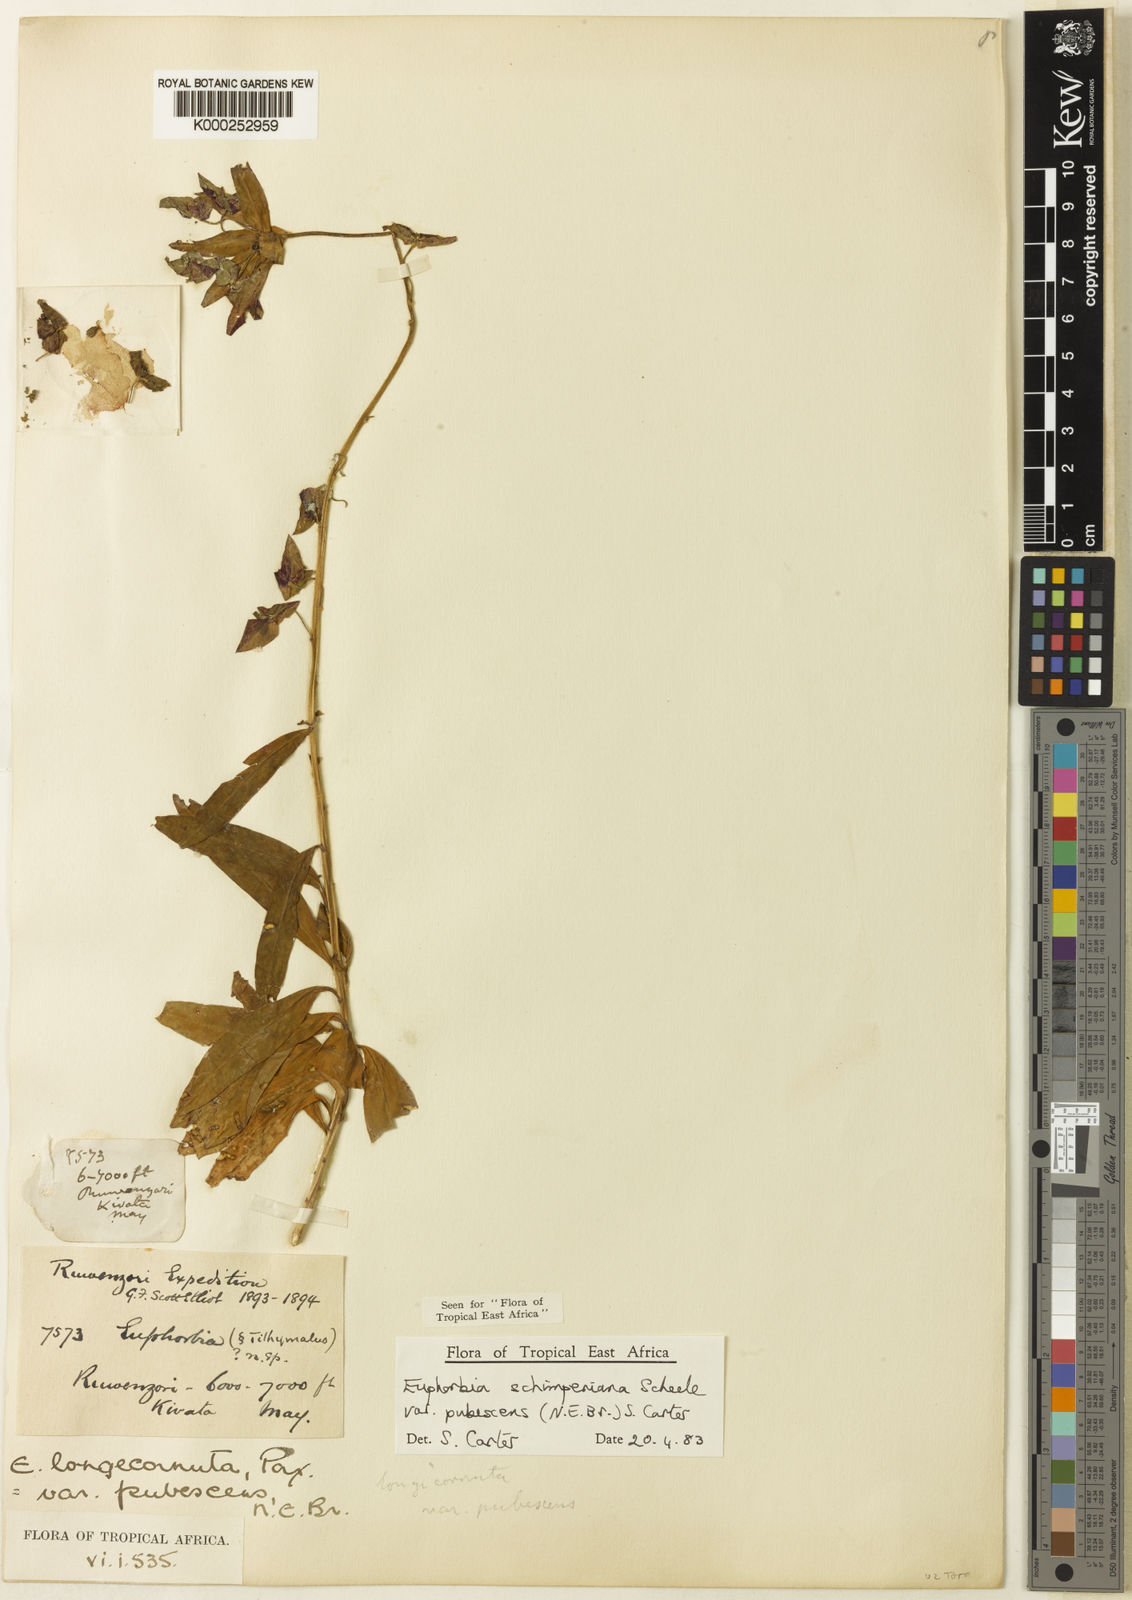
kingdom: Plantae
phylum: Tracheophyta
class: Magnoliopsida
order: Malpighiales
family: Euphorbiaceae
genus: Euphorbia
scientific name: Euphorbia schimperiana
